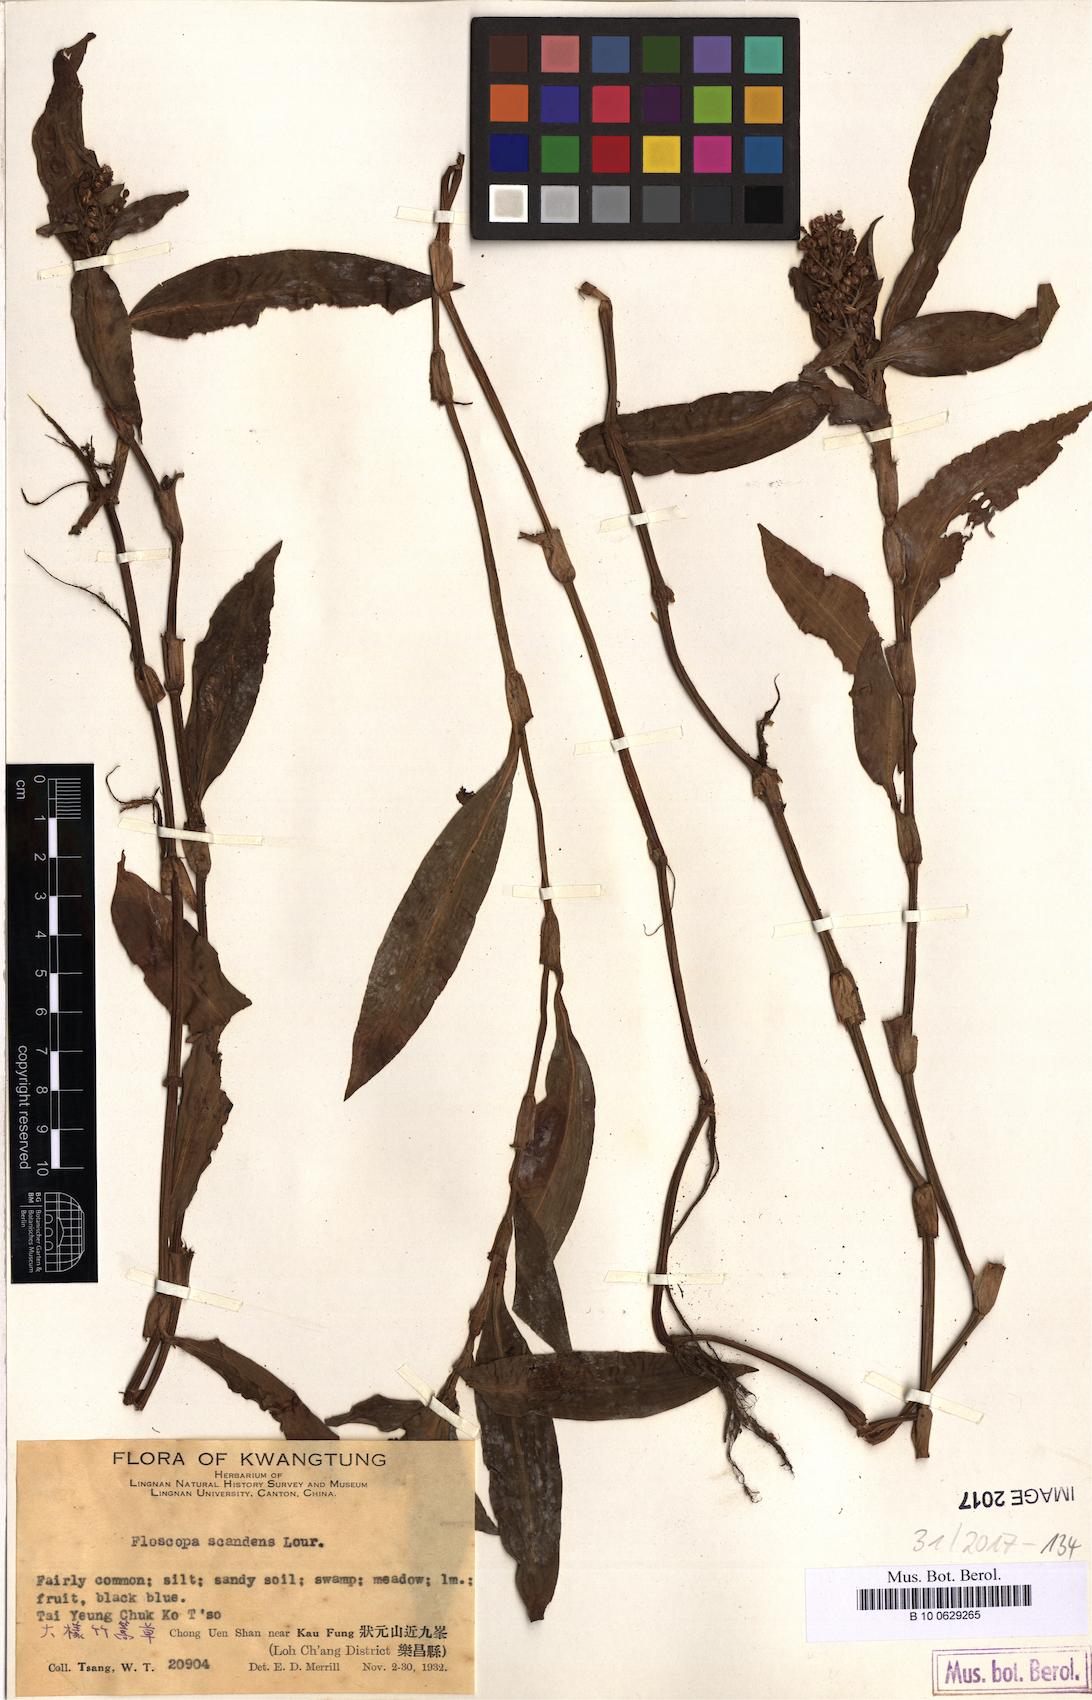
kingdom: Plantae
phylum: Tracheophyta
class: Liliopsida
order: Commelinales
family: Commelinaceae
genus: Floscopa
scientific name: Floscopa scandens
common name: Climbing flower cup
